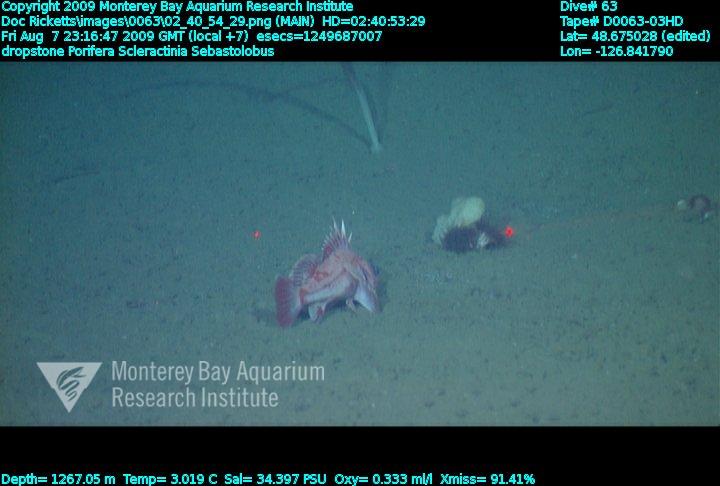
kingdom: Animalia
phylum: Porifera
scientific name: Porifera
